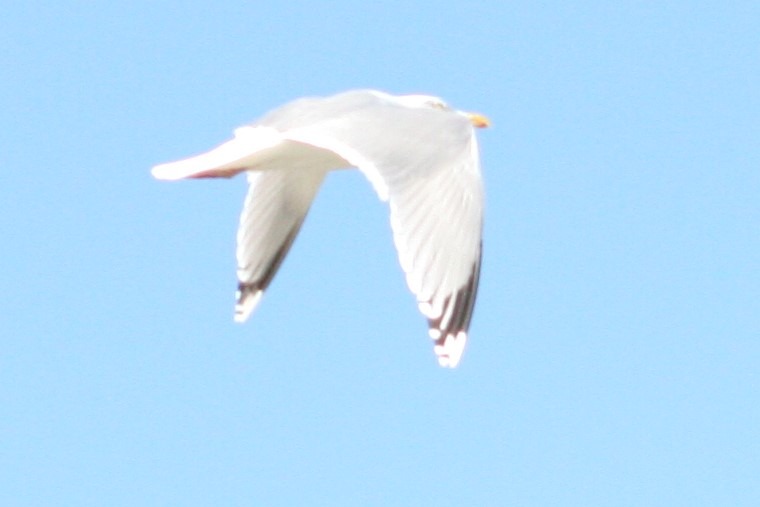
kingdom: Animalia
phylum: Chordata
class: Aves
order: Charadriiformes
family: Laridae
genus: Larus
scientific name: Larus argentatus
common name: Sølvmåge
